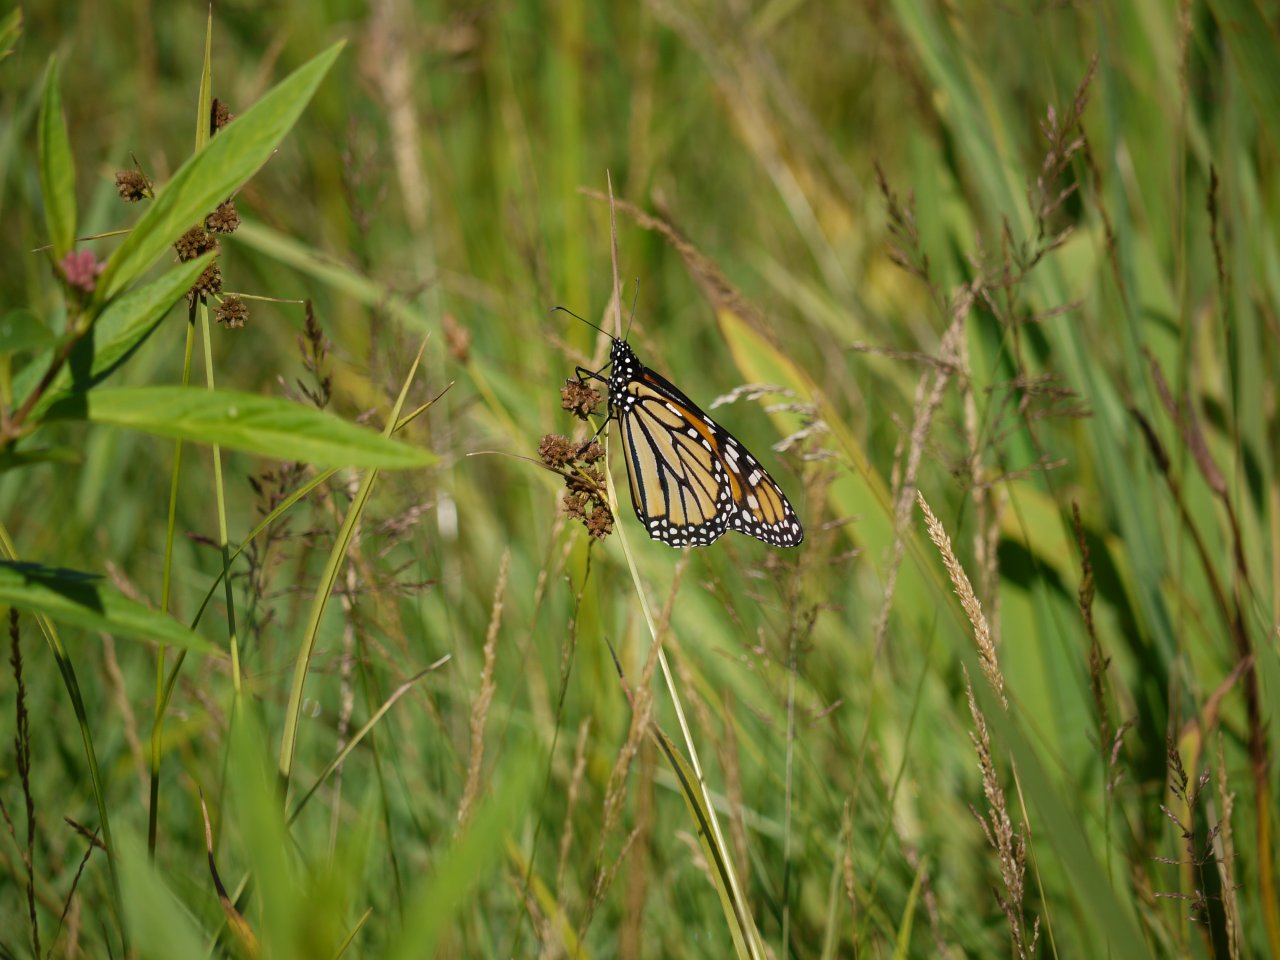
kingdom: Animalia
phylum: Arthropoda
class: Insecta
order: Lepidoptera
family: Nymphalidae
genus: Danaus
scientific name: Danaus plexippus
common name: Monarch
